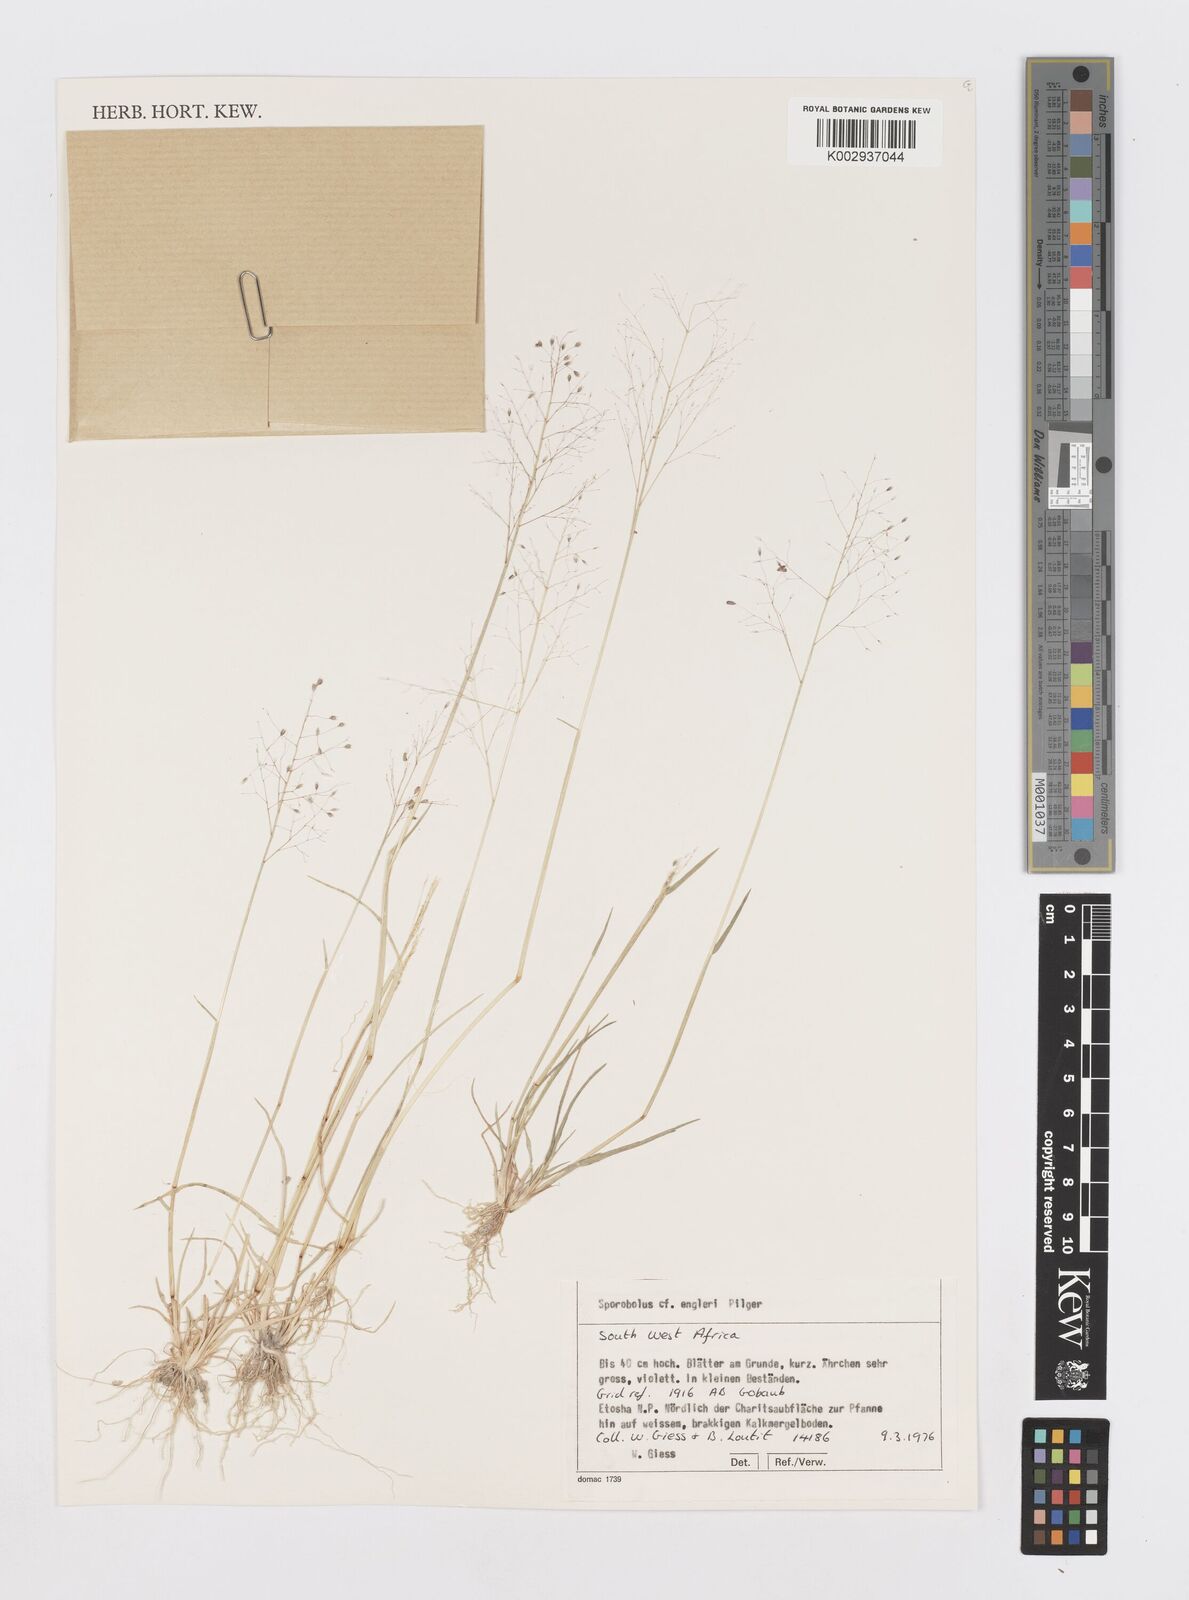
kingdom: Plantae
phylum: Tracheophyta
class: Liliopsida
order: Poales
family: Poaceae
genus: Sporobolus
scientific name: Sporobolus
